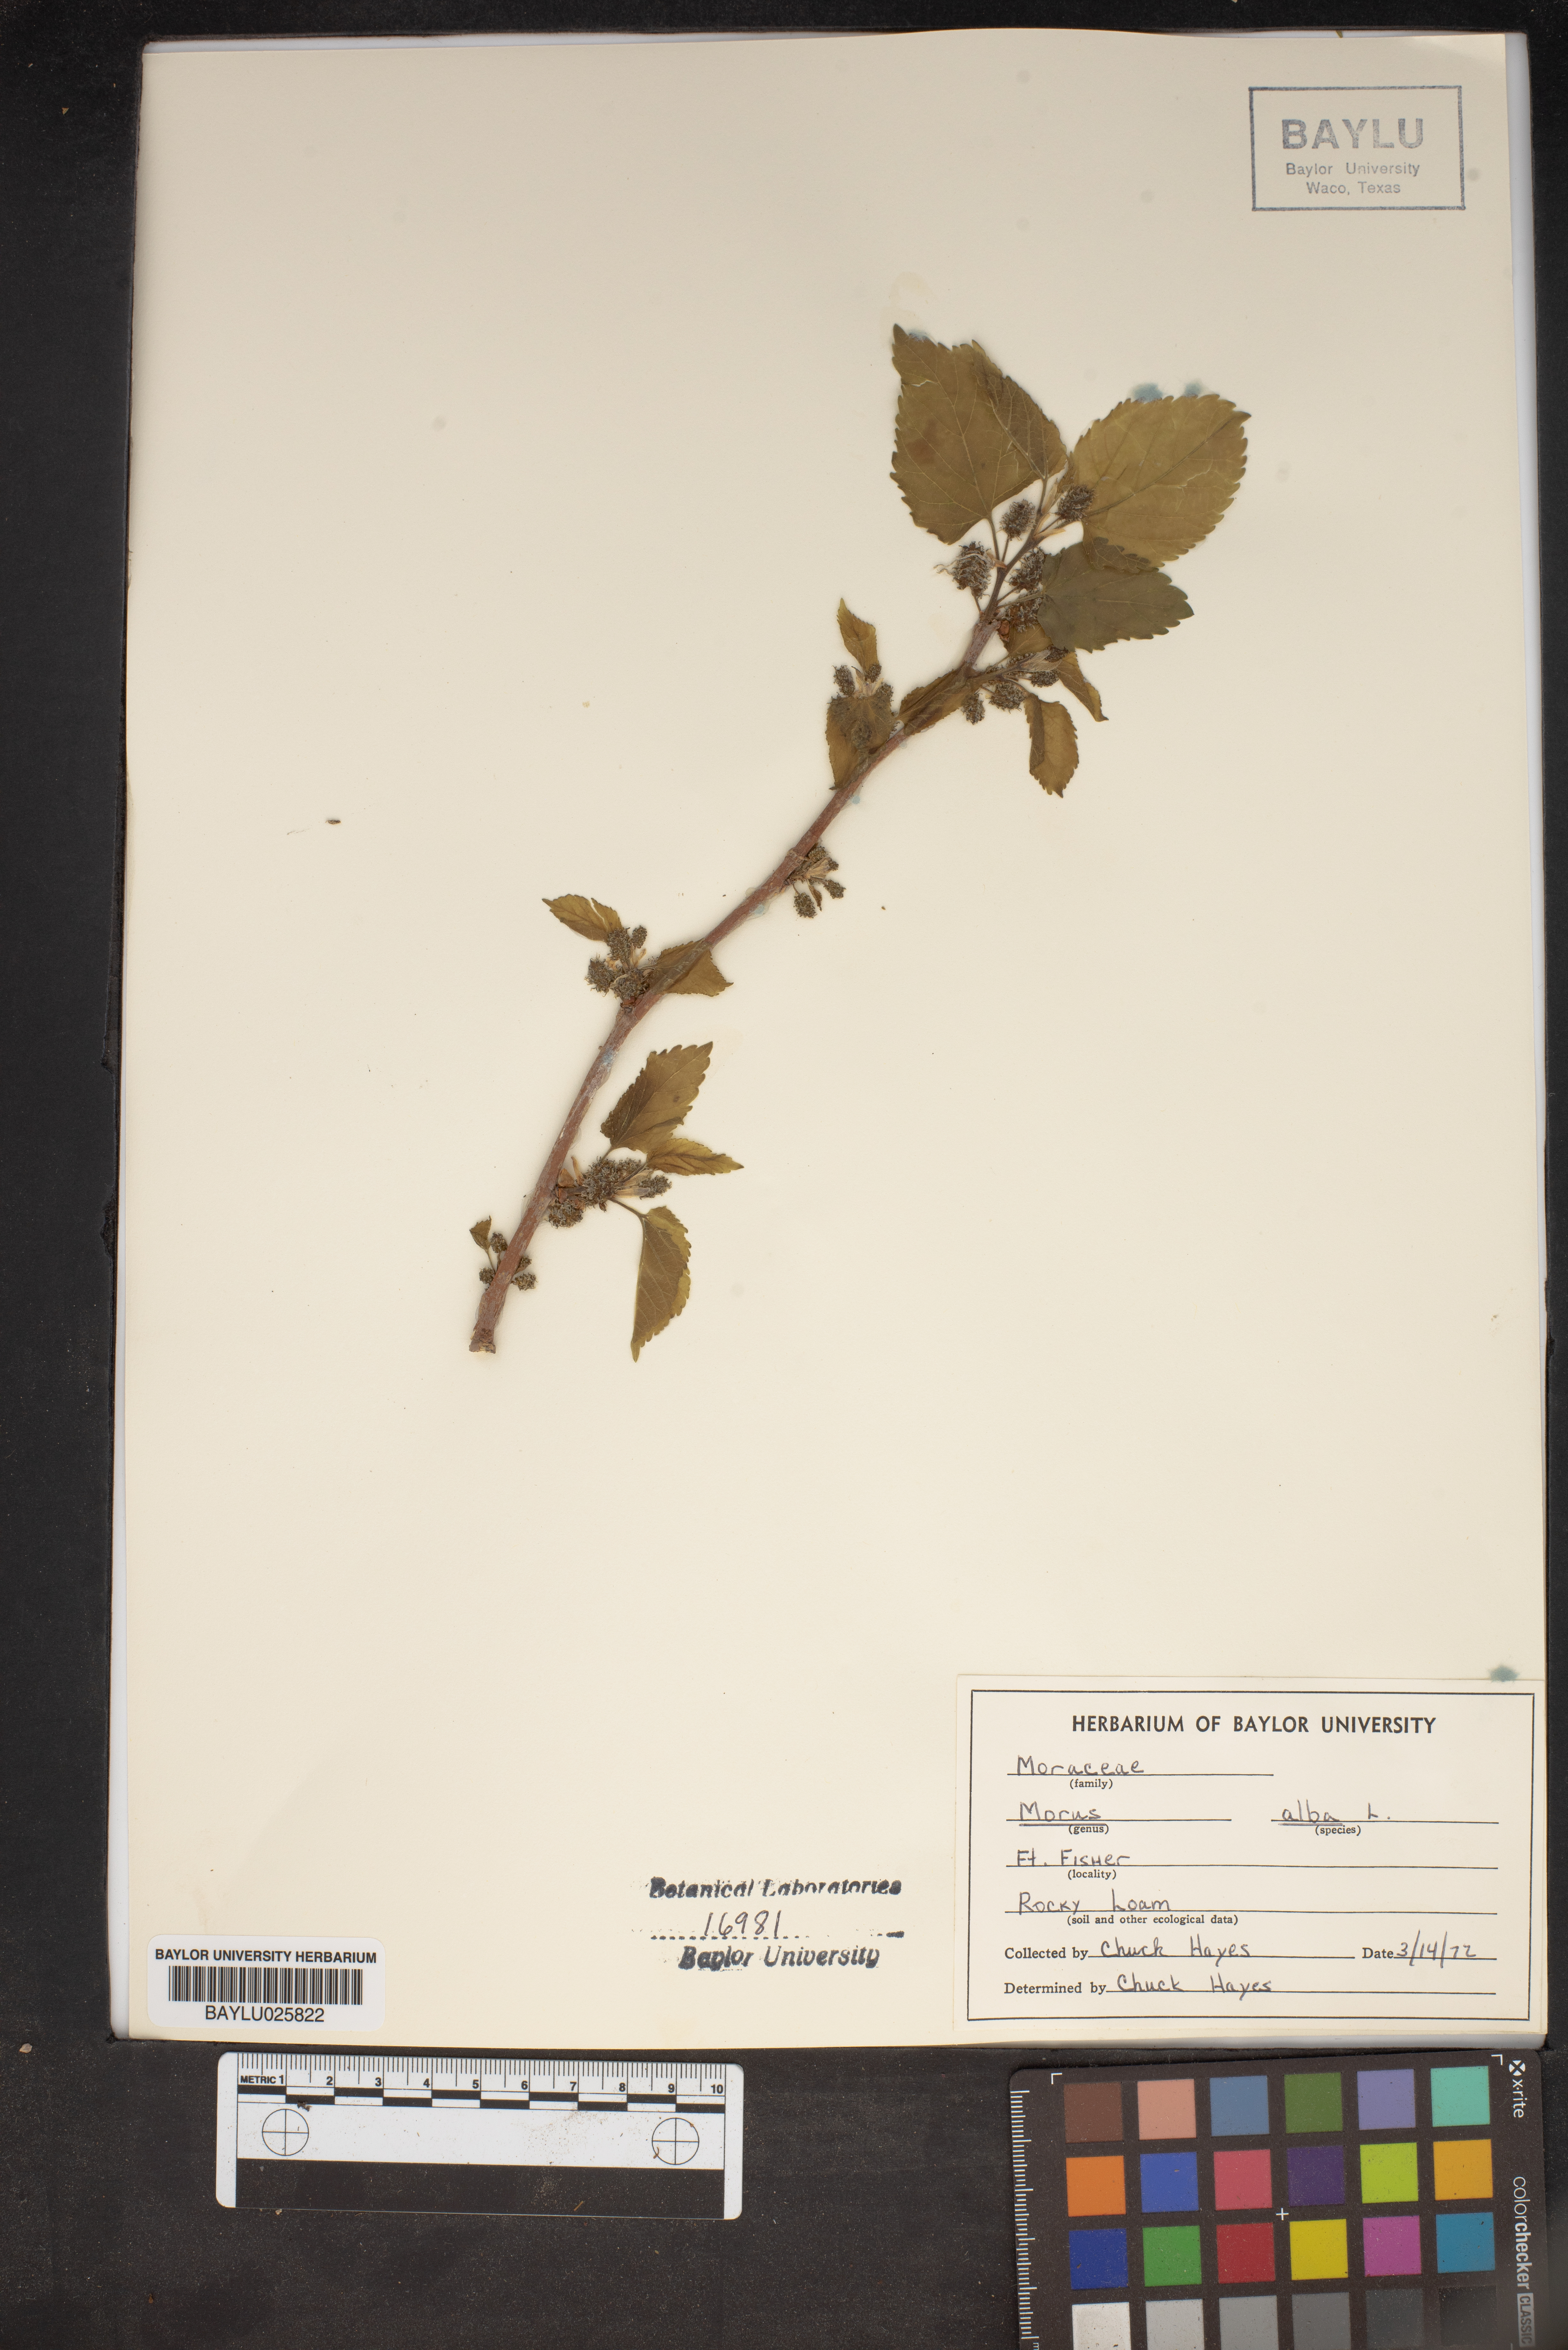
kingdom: Plantae
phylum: Tracheophyta
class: Magnoliopsida
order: Rosales
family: Moraceae
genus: Morus
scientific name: Morus alba
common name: White mulberry
